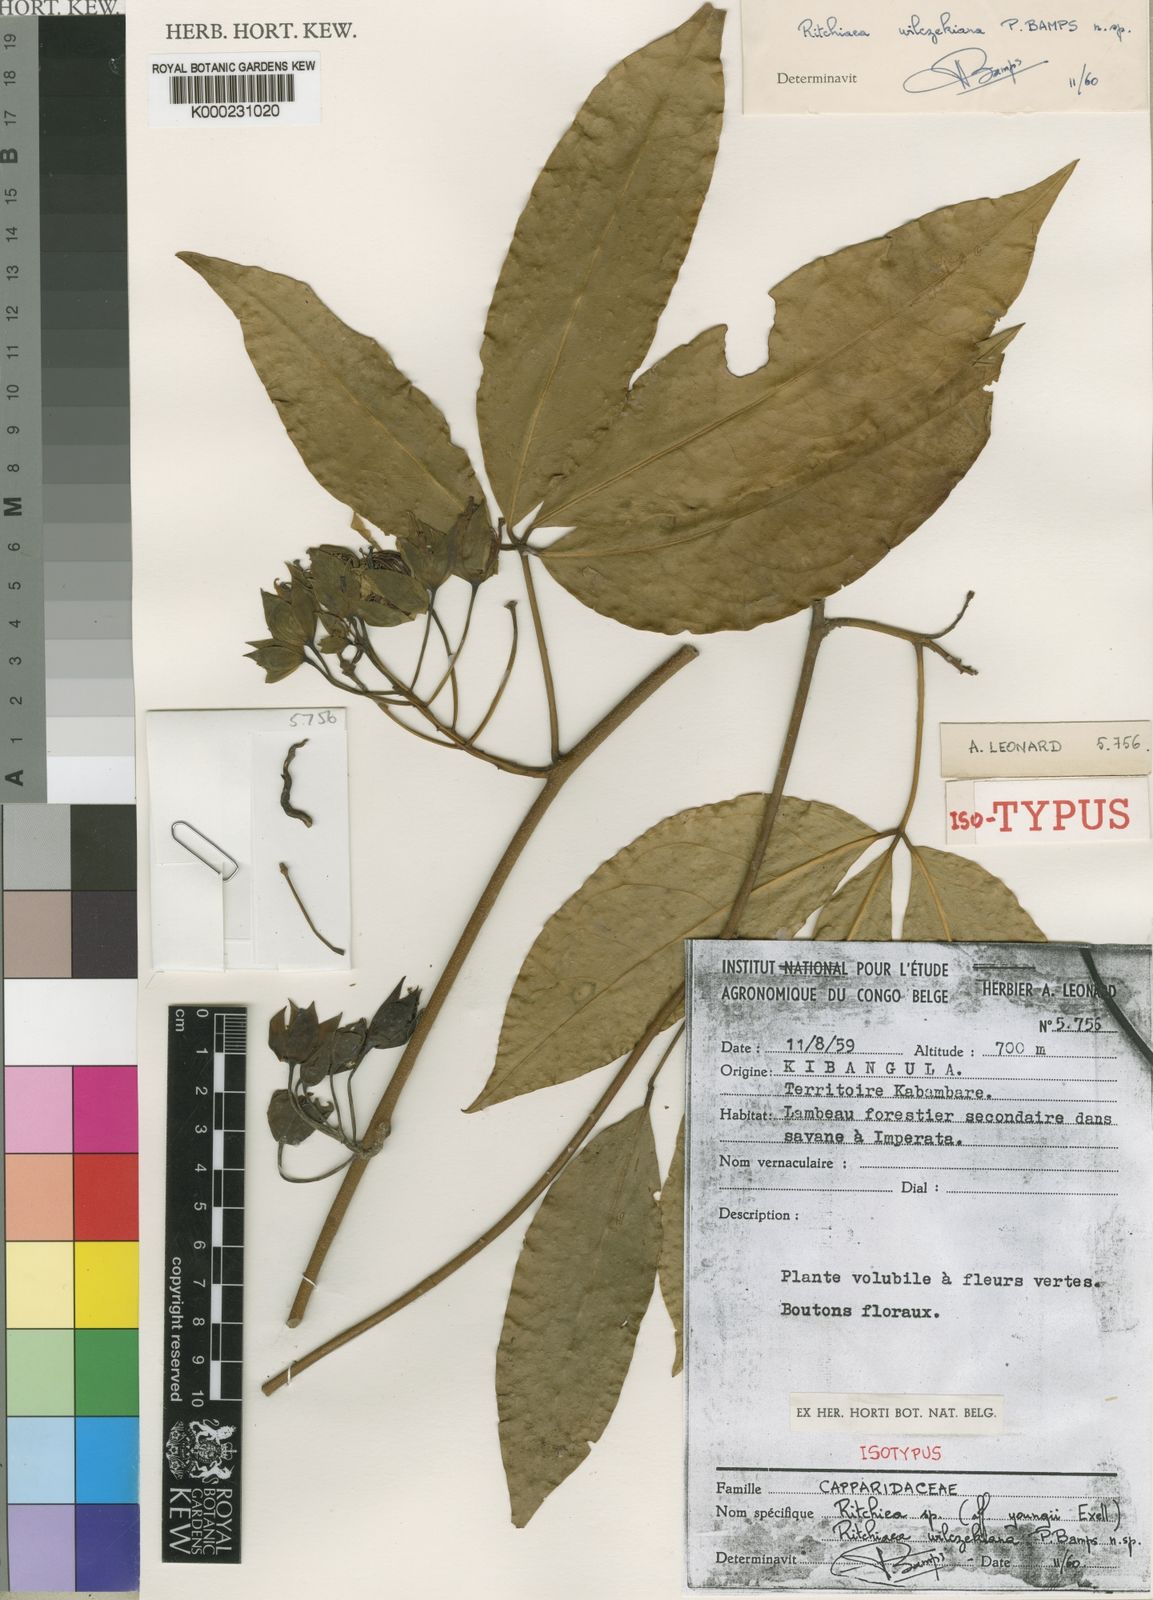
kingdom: Plantae
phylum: Tracheophyta
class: Magnoliopsida
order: Brassicales
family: Capparaceae
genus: Ritchiea
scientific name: Ritchiea wilczekiana
